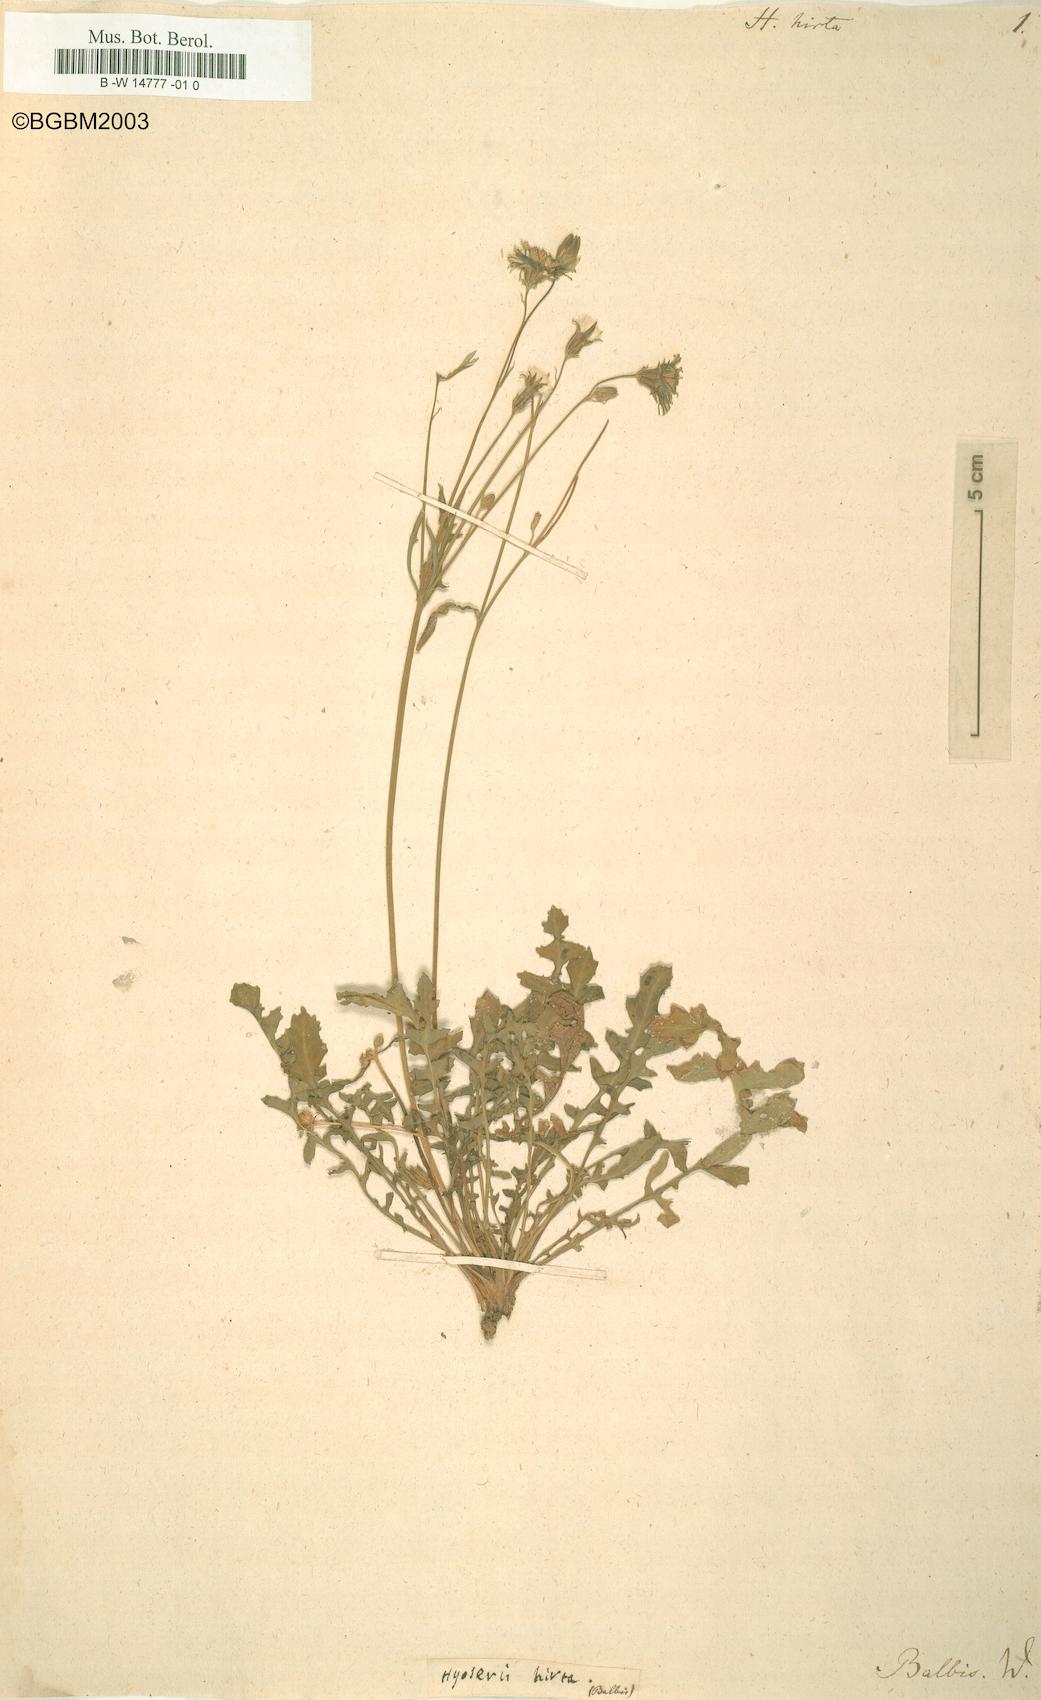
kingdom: Plantae
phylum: Tracheophyta
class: Magnoliopsida
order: Asterales
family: Asteraceae
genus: Crepis
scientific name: Crepis bursifolia
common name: Italian hawksbeard
